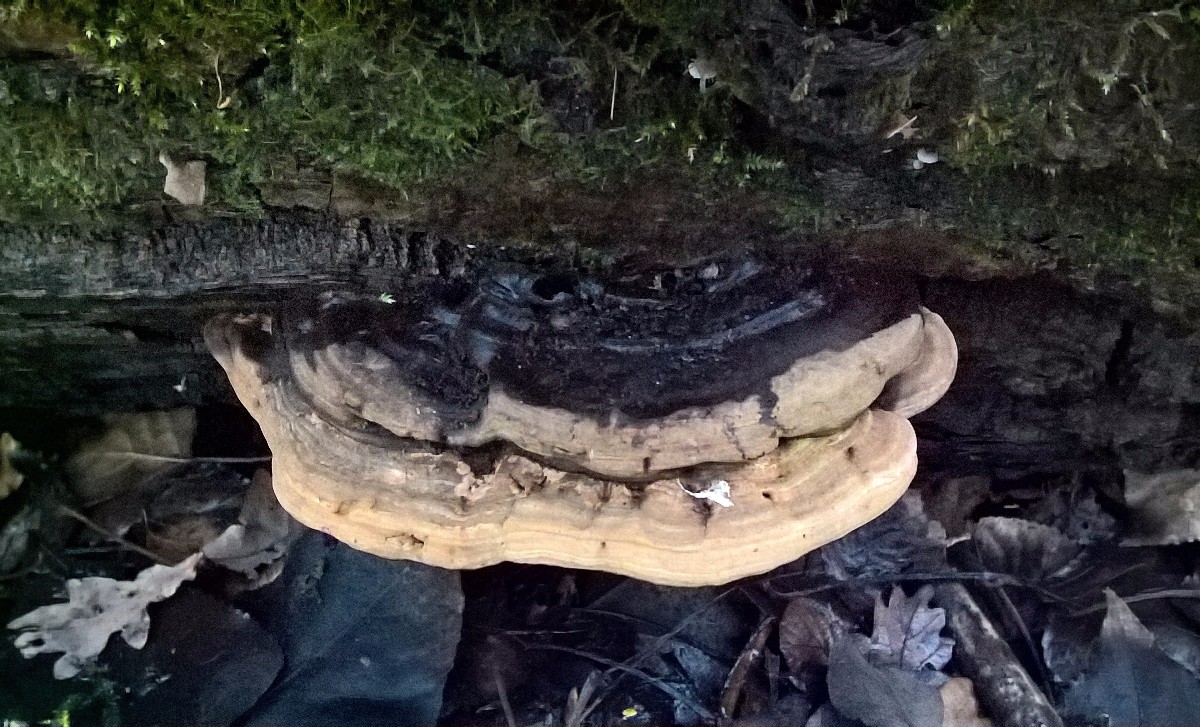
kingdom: Fungi
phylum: Basidiomycota
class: Agaricomycetes
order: Polyporales
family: Polyporaceae
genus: Ganoderma
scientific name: Ganoderma applanatum
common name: flad lakporesvamp
